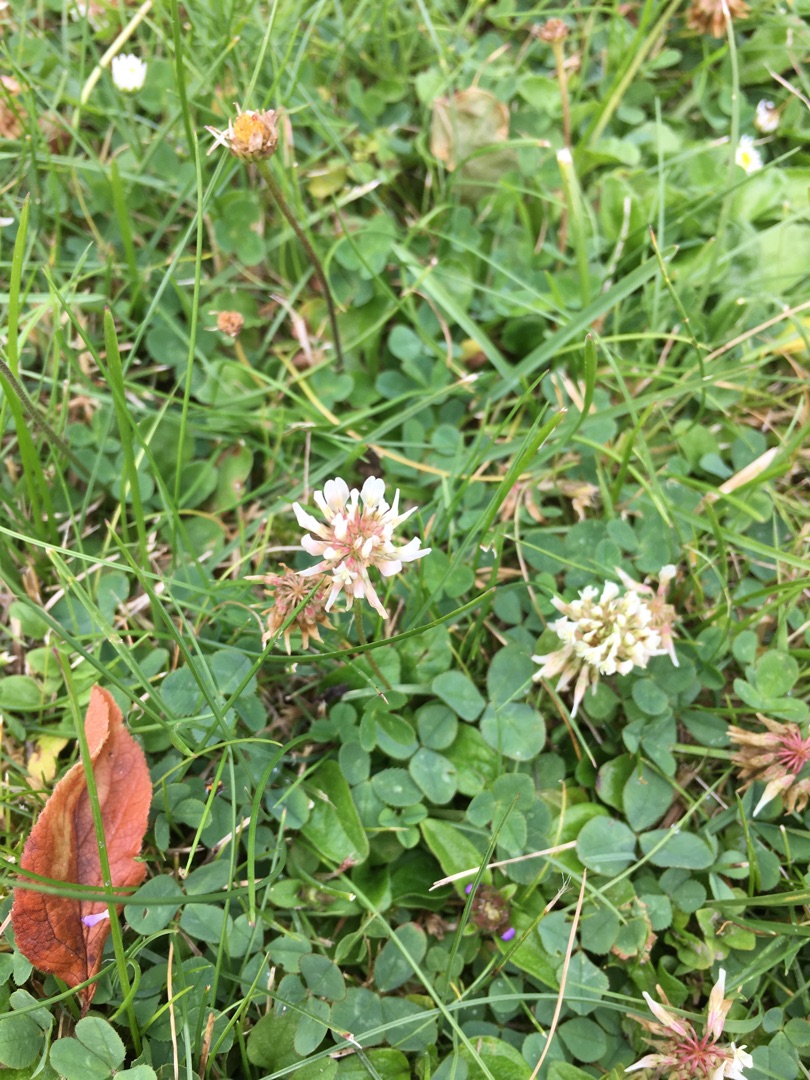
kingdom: Plantae
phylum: Tracheophyta
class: Magnoliopsida
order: Fabales
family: Fabaceae
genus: Trifolium
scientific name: Trifolium repens
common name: Hvid-kløver
